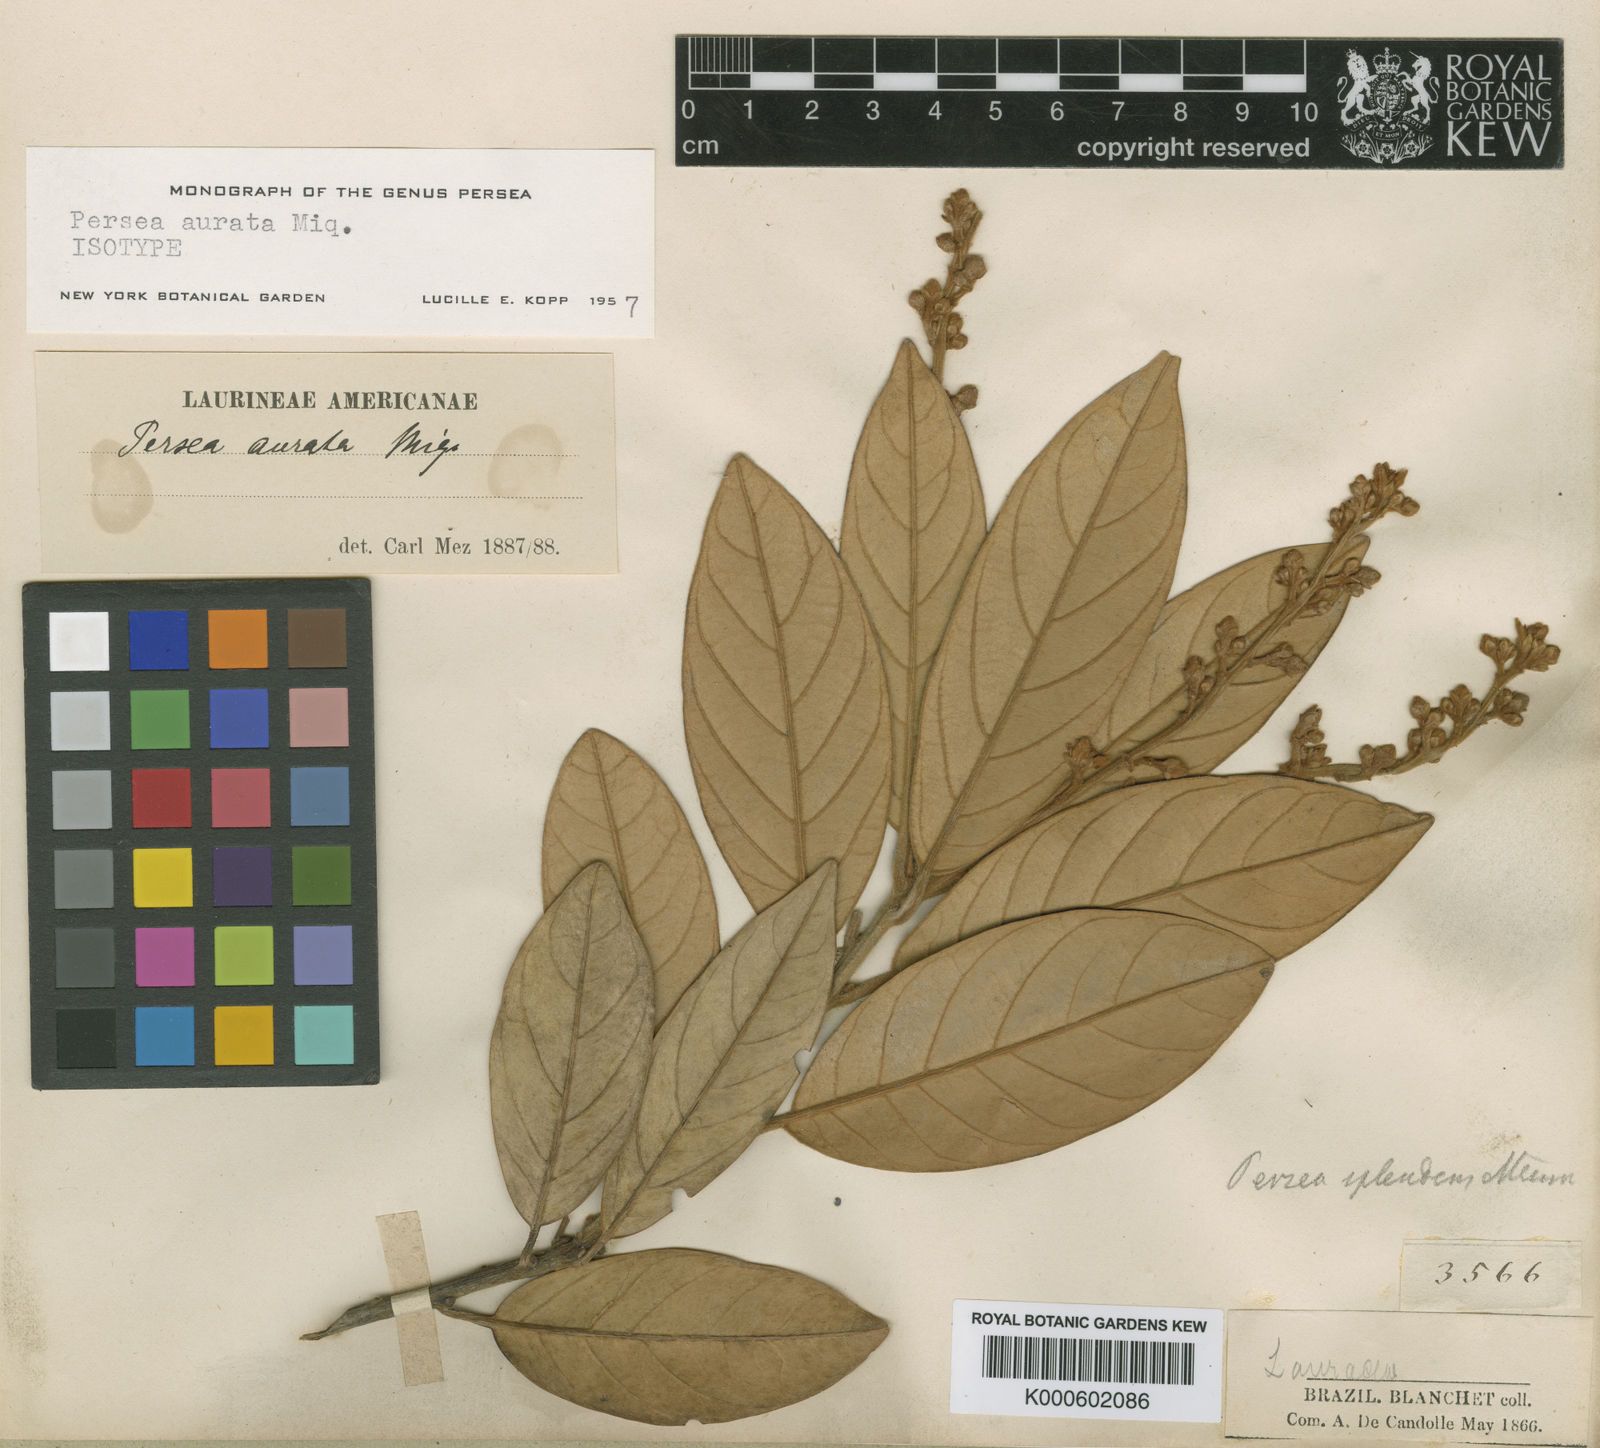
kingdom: Plantae
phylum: Tracheophyta
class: Magnoliopsida
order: Laurales
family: Lauraceae
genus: Persea
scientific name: Persea aurata
